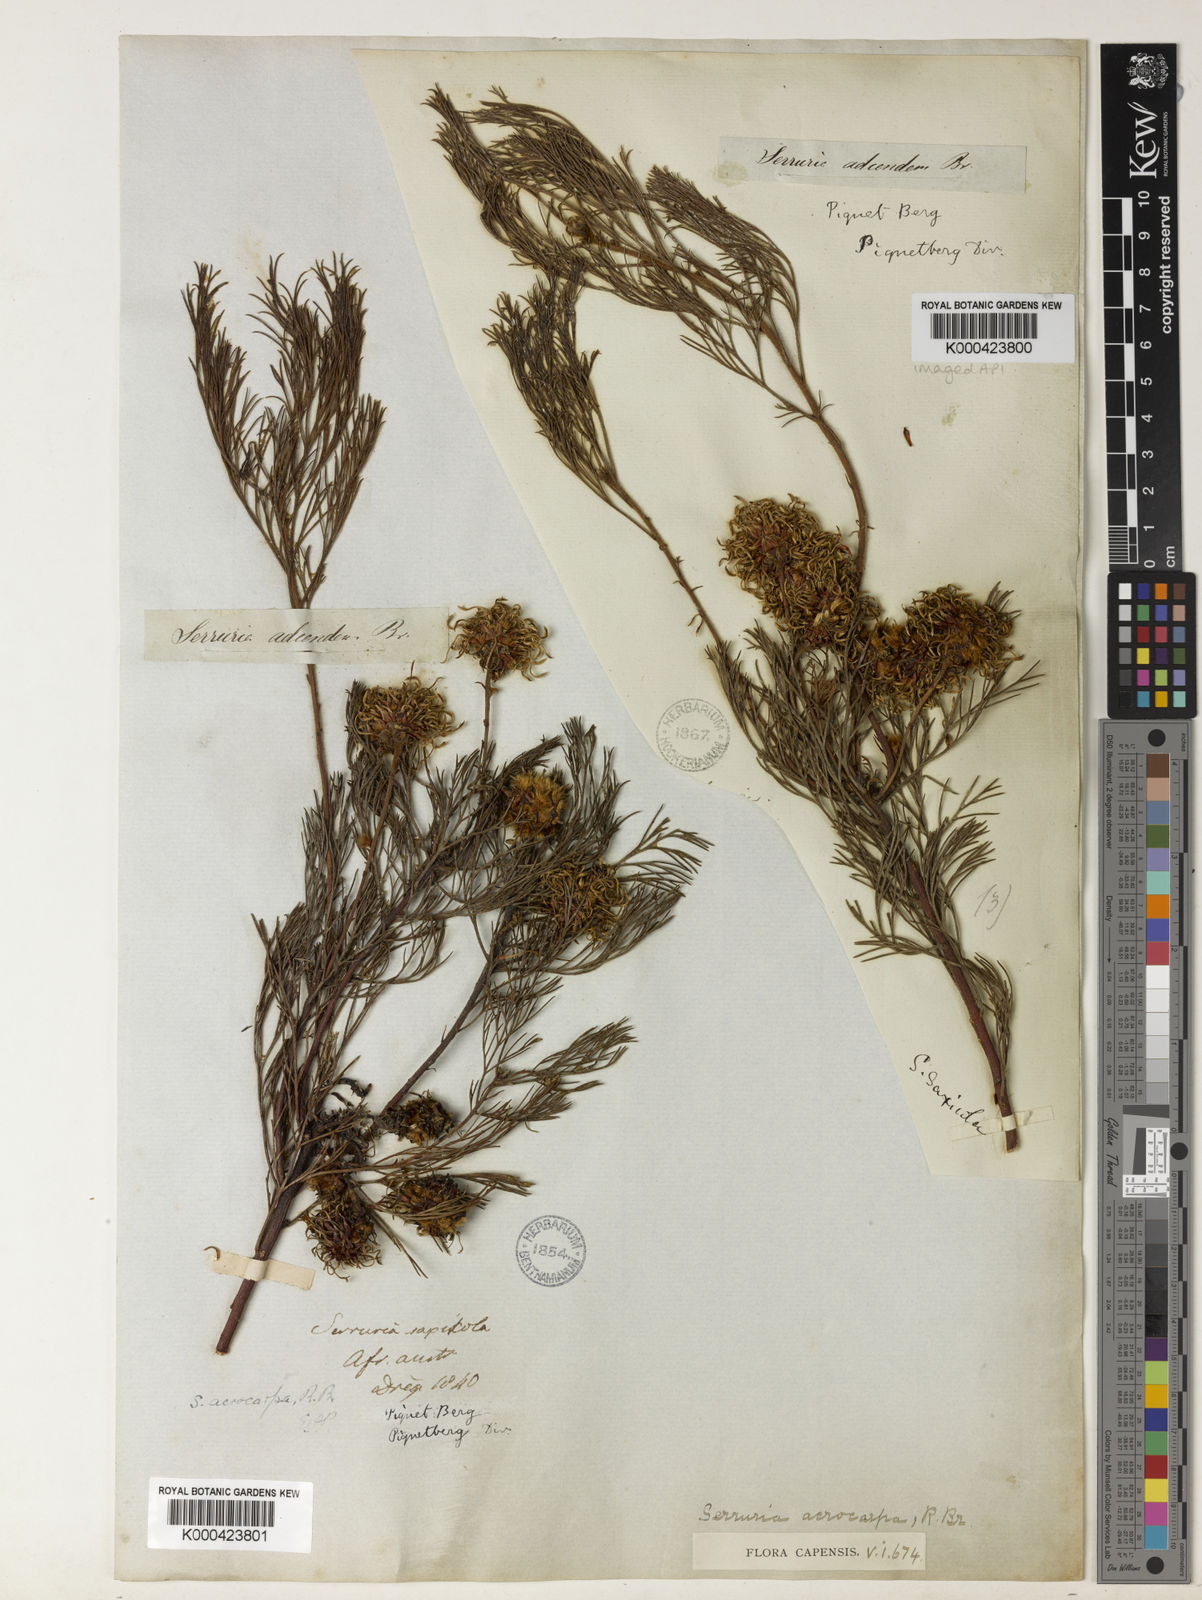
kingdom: Plantae
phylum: Tracheophyta
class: Magnoliopsida
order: Proteales
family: Proteaceae
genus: Serruria
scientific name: Serruria acrocarpa
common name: Common rootstock spiderhead
